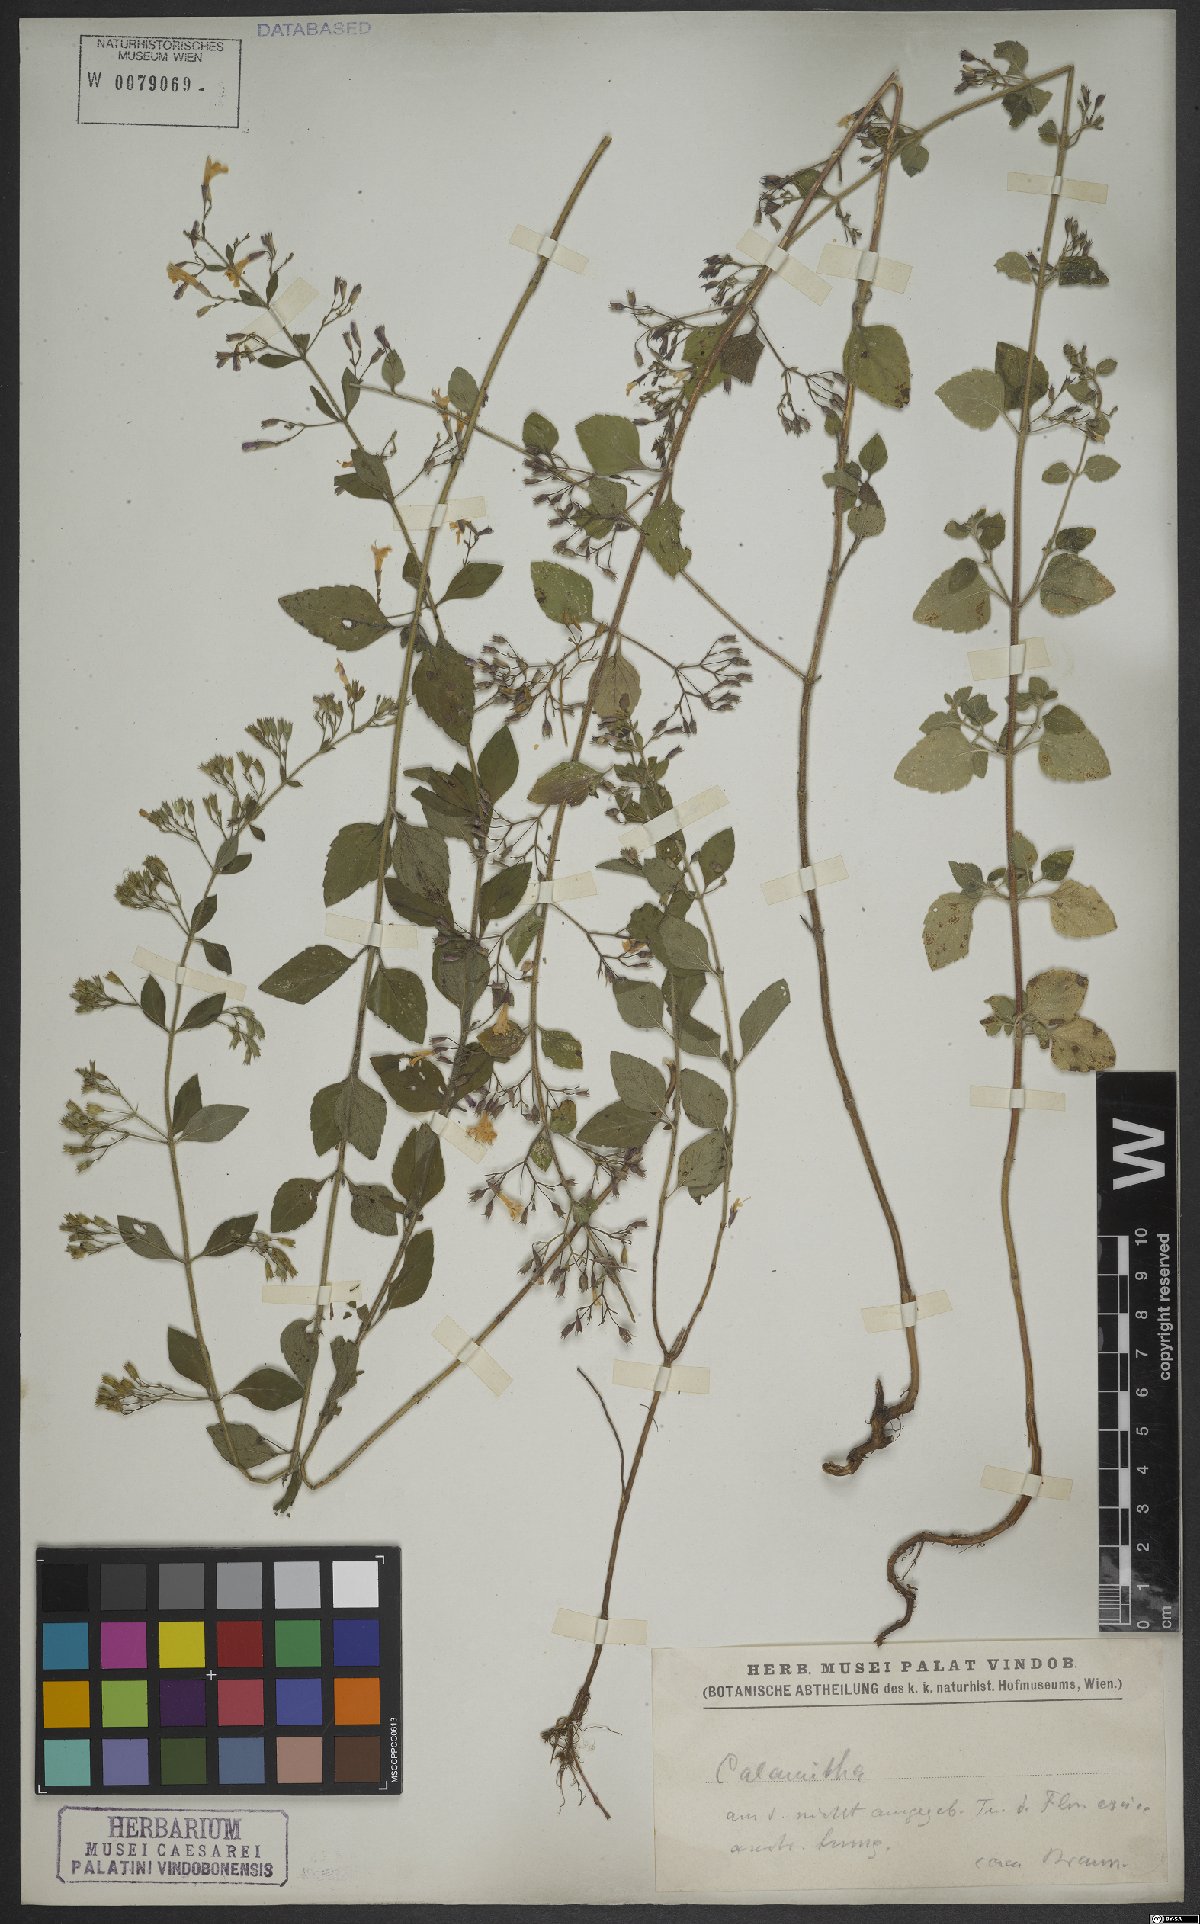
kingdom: Plantae
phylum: Tracheophyta
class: Magnoliopsida
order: Lamiales
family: Lamiaceae
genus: Clinopodium
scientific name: Clinopodium nepeta
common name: Lesser calamint
